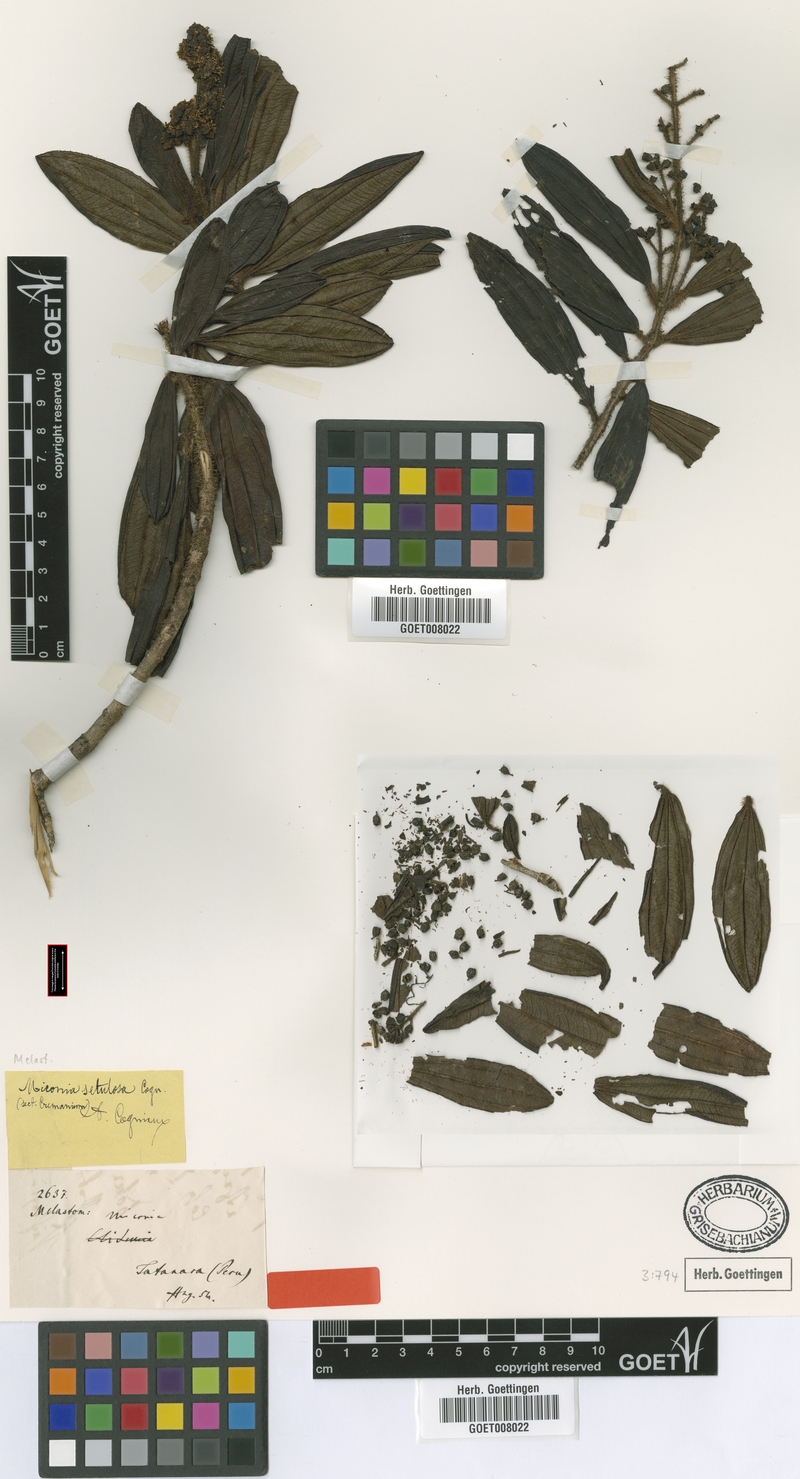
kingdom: Plantae
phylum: Tracheophyta
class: Magnoliopsida
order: Myrtales
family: Melastomataceae
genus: Miconia
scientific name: Miconia setulosa
